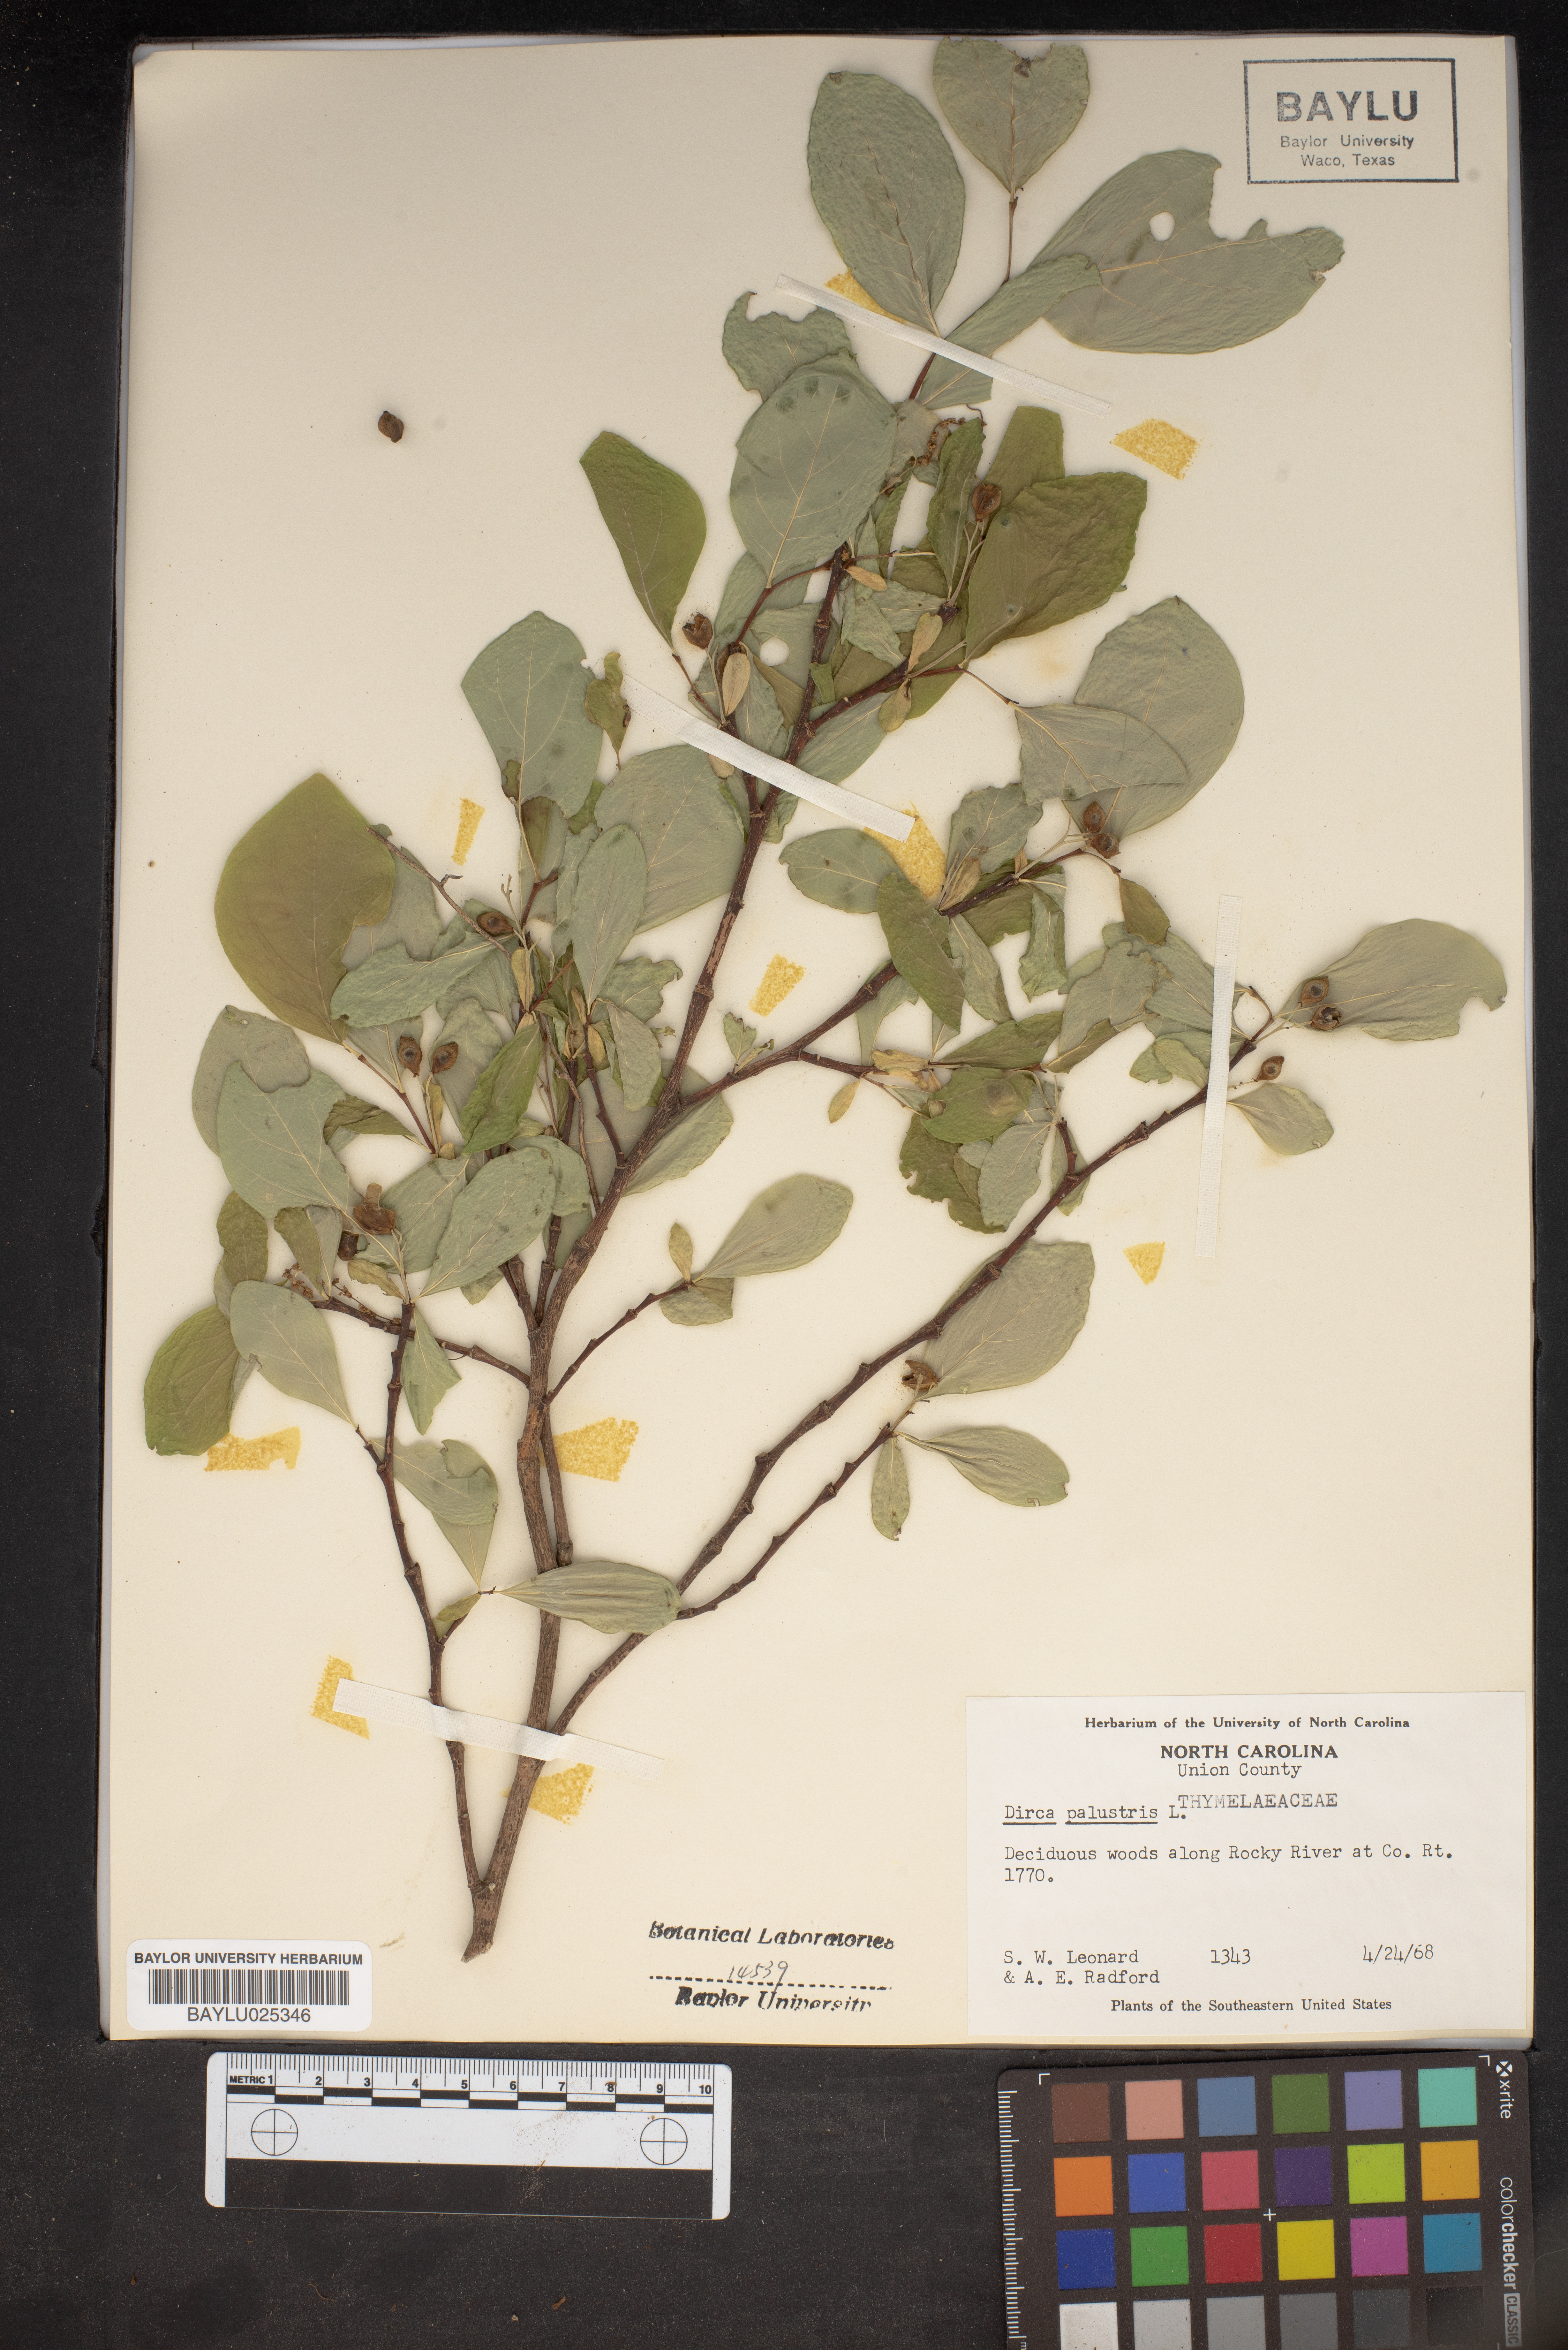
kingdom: Plantae
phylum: Tracheophyta
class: Magnoliopsida
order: Malvales
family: Thymelaeaceae
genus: Dirca
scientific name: Dirca palustris
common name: Leatherwood
